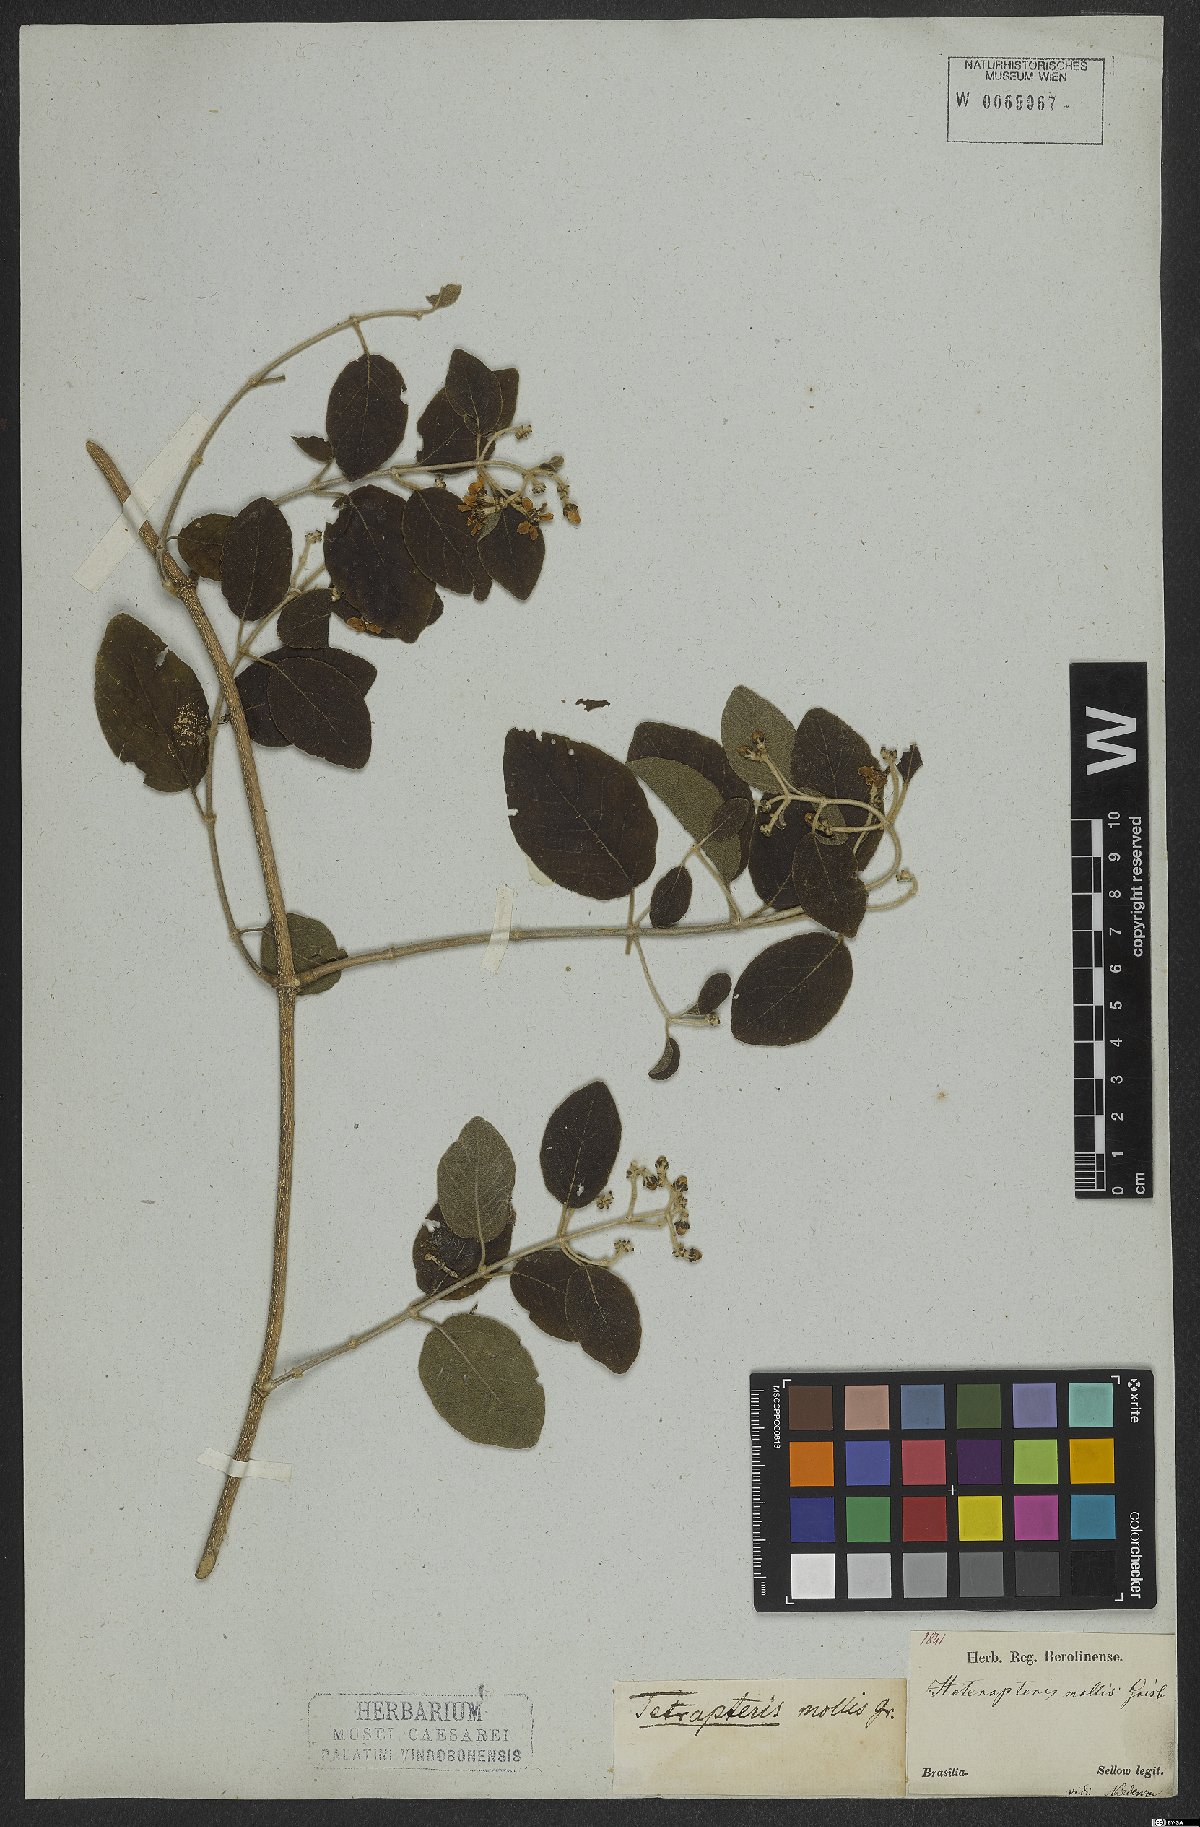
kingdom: Plantae
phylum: Tracheophyta
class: Magnoliopsida
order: Malpighiales
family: Malpighiaceae
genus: Tetrapterys
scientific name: Tetrapterys mollis
